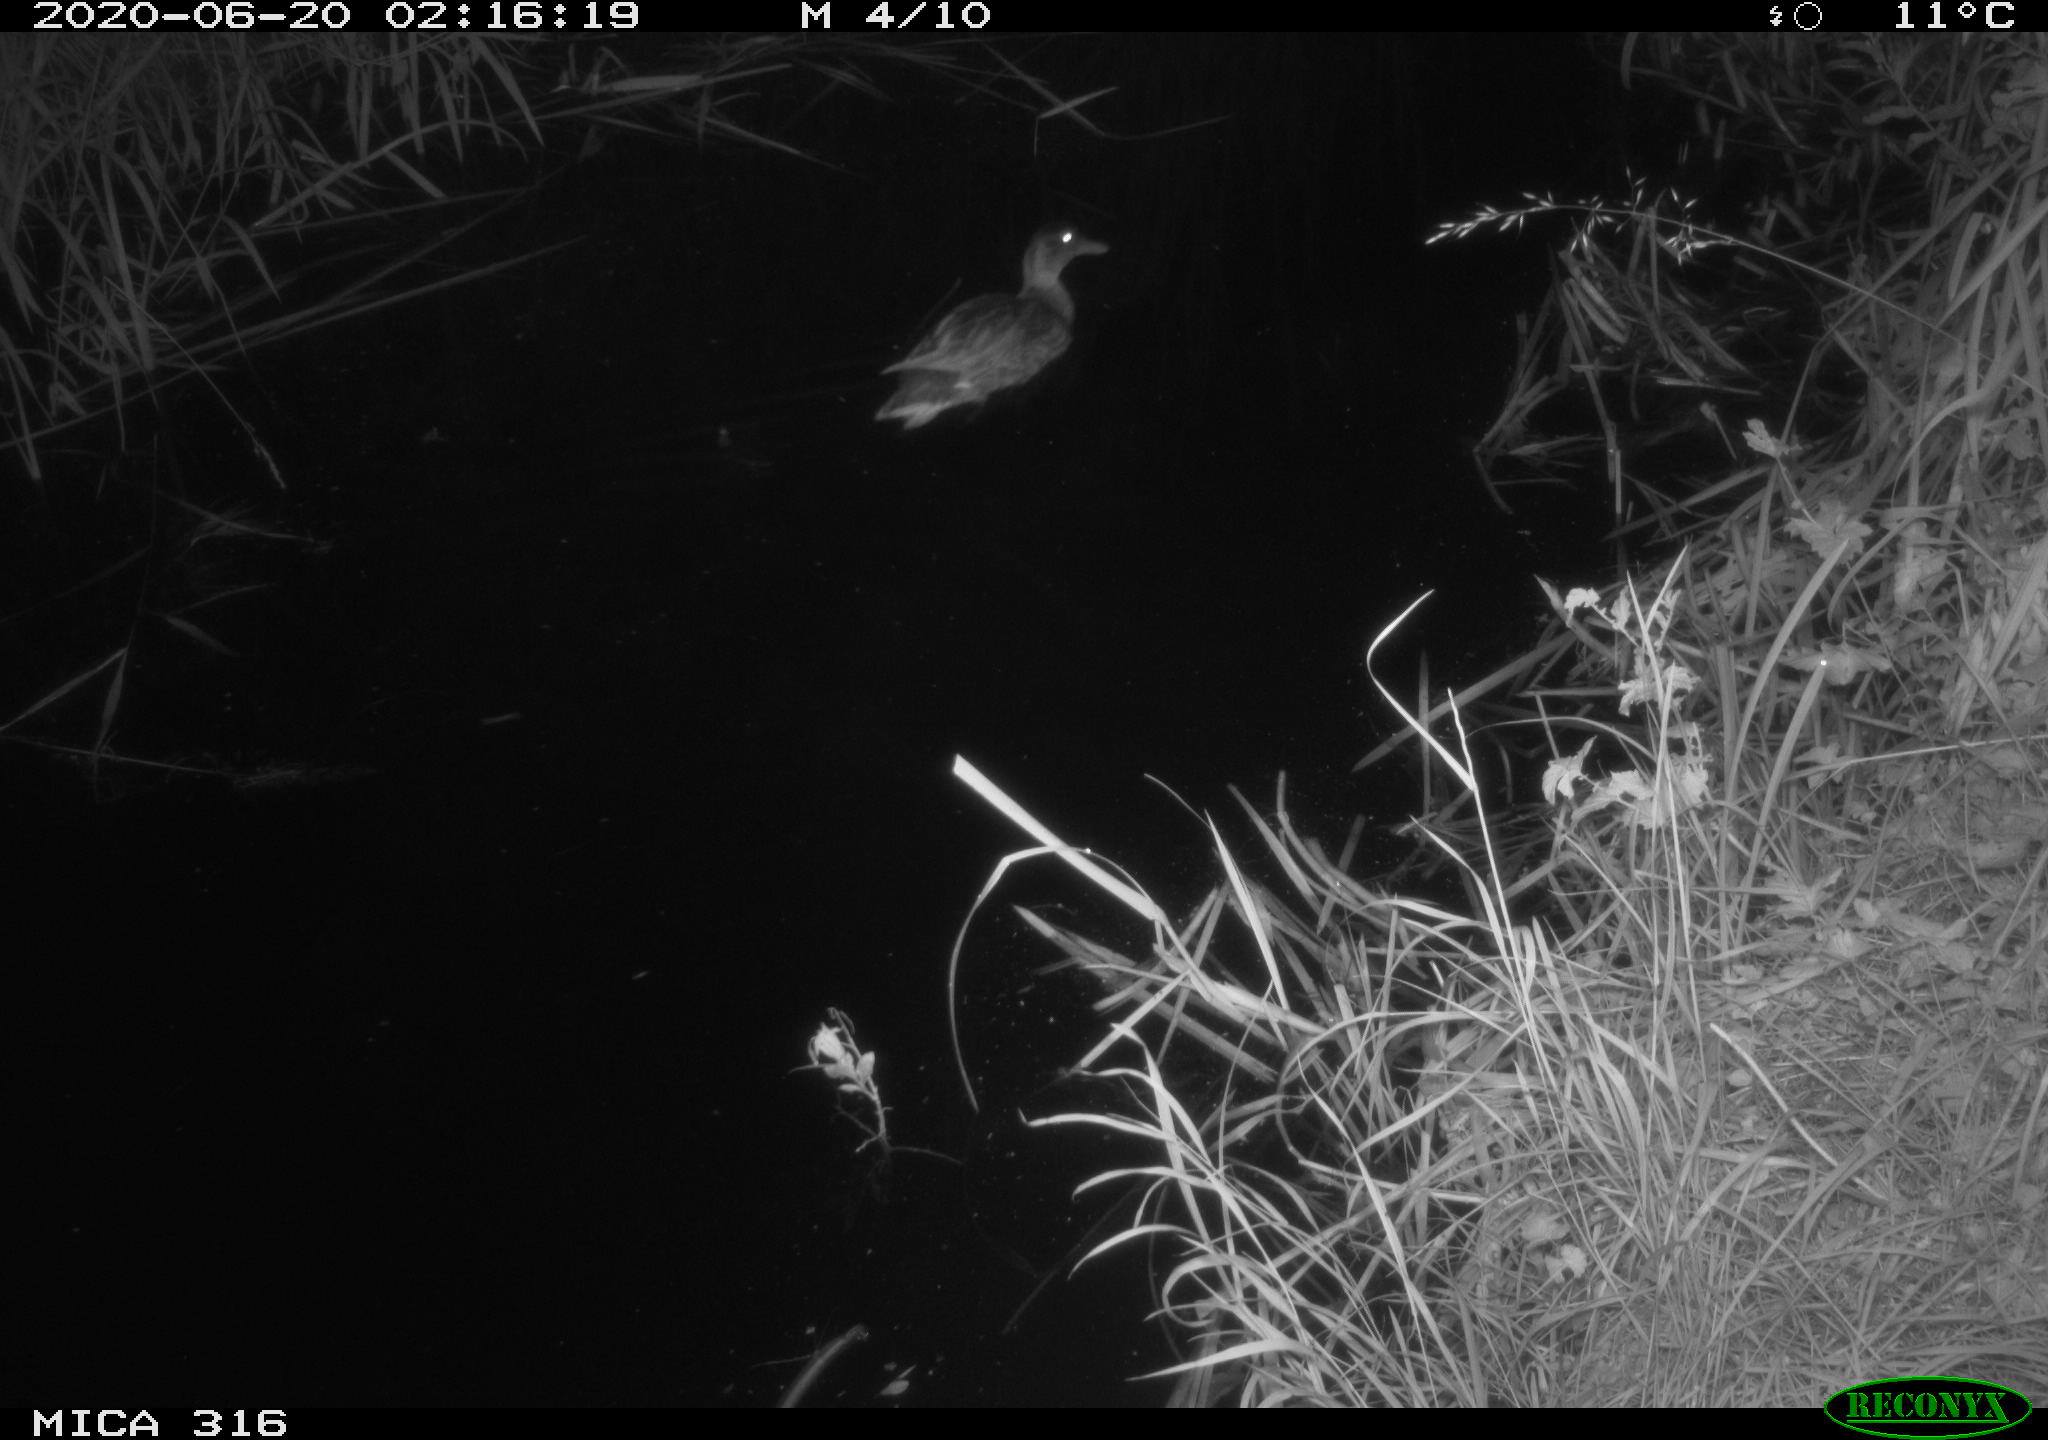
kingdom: Animalia
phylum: Chordata
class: Aves
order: Anseriformes
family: Anatidae
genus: Anas
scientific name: Anas platyrhynchos
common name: Mallard
